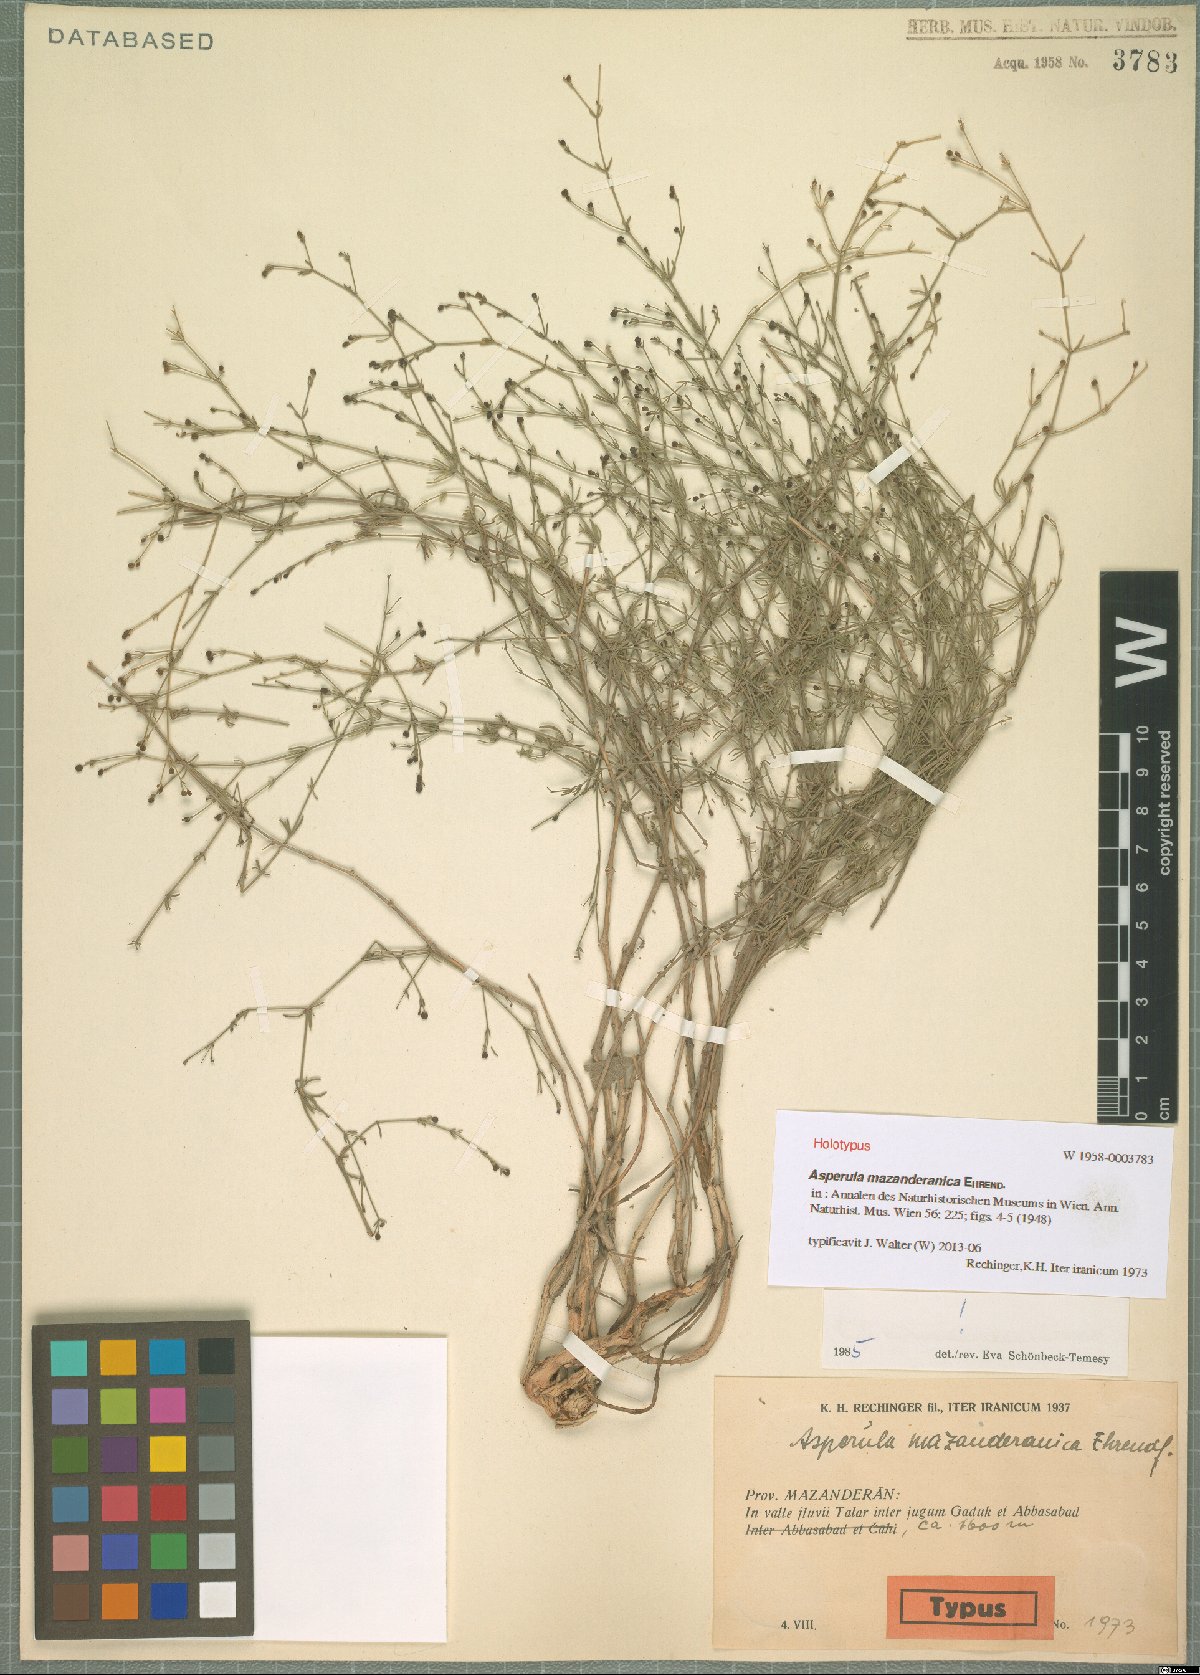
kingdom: Plantae
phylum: Tracheophyta
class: Magnoliopsida
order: Gentianales
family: Rubiaceae
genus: Thliphthisa
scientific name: Thliphthisa mazanderanica
